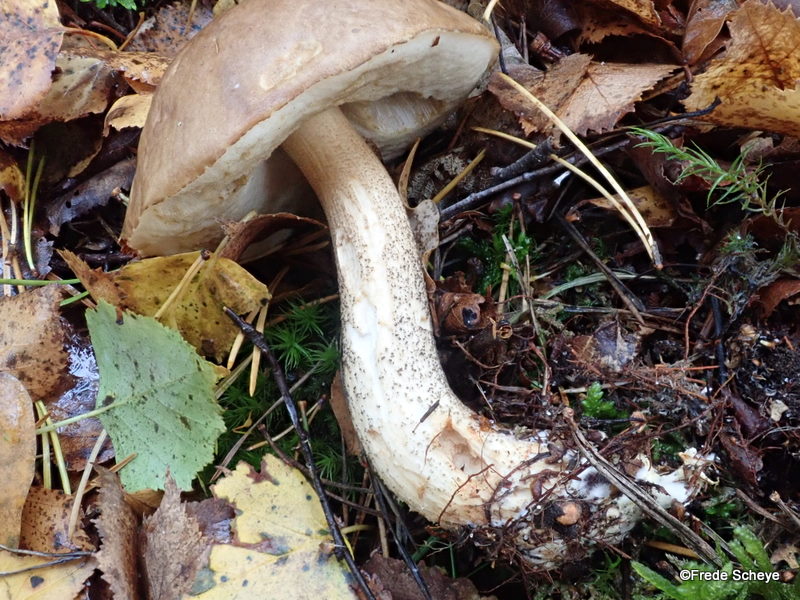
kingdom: Fungi
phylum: Basidiomycota
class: Agaricomycetes
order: Boletales
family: Boletaceae
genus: Leccinum
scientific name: Leccinum scabrum
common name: brun skælrørhat
